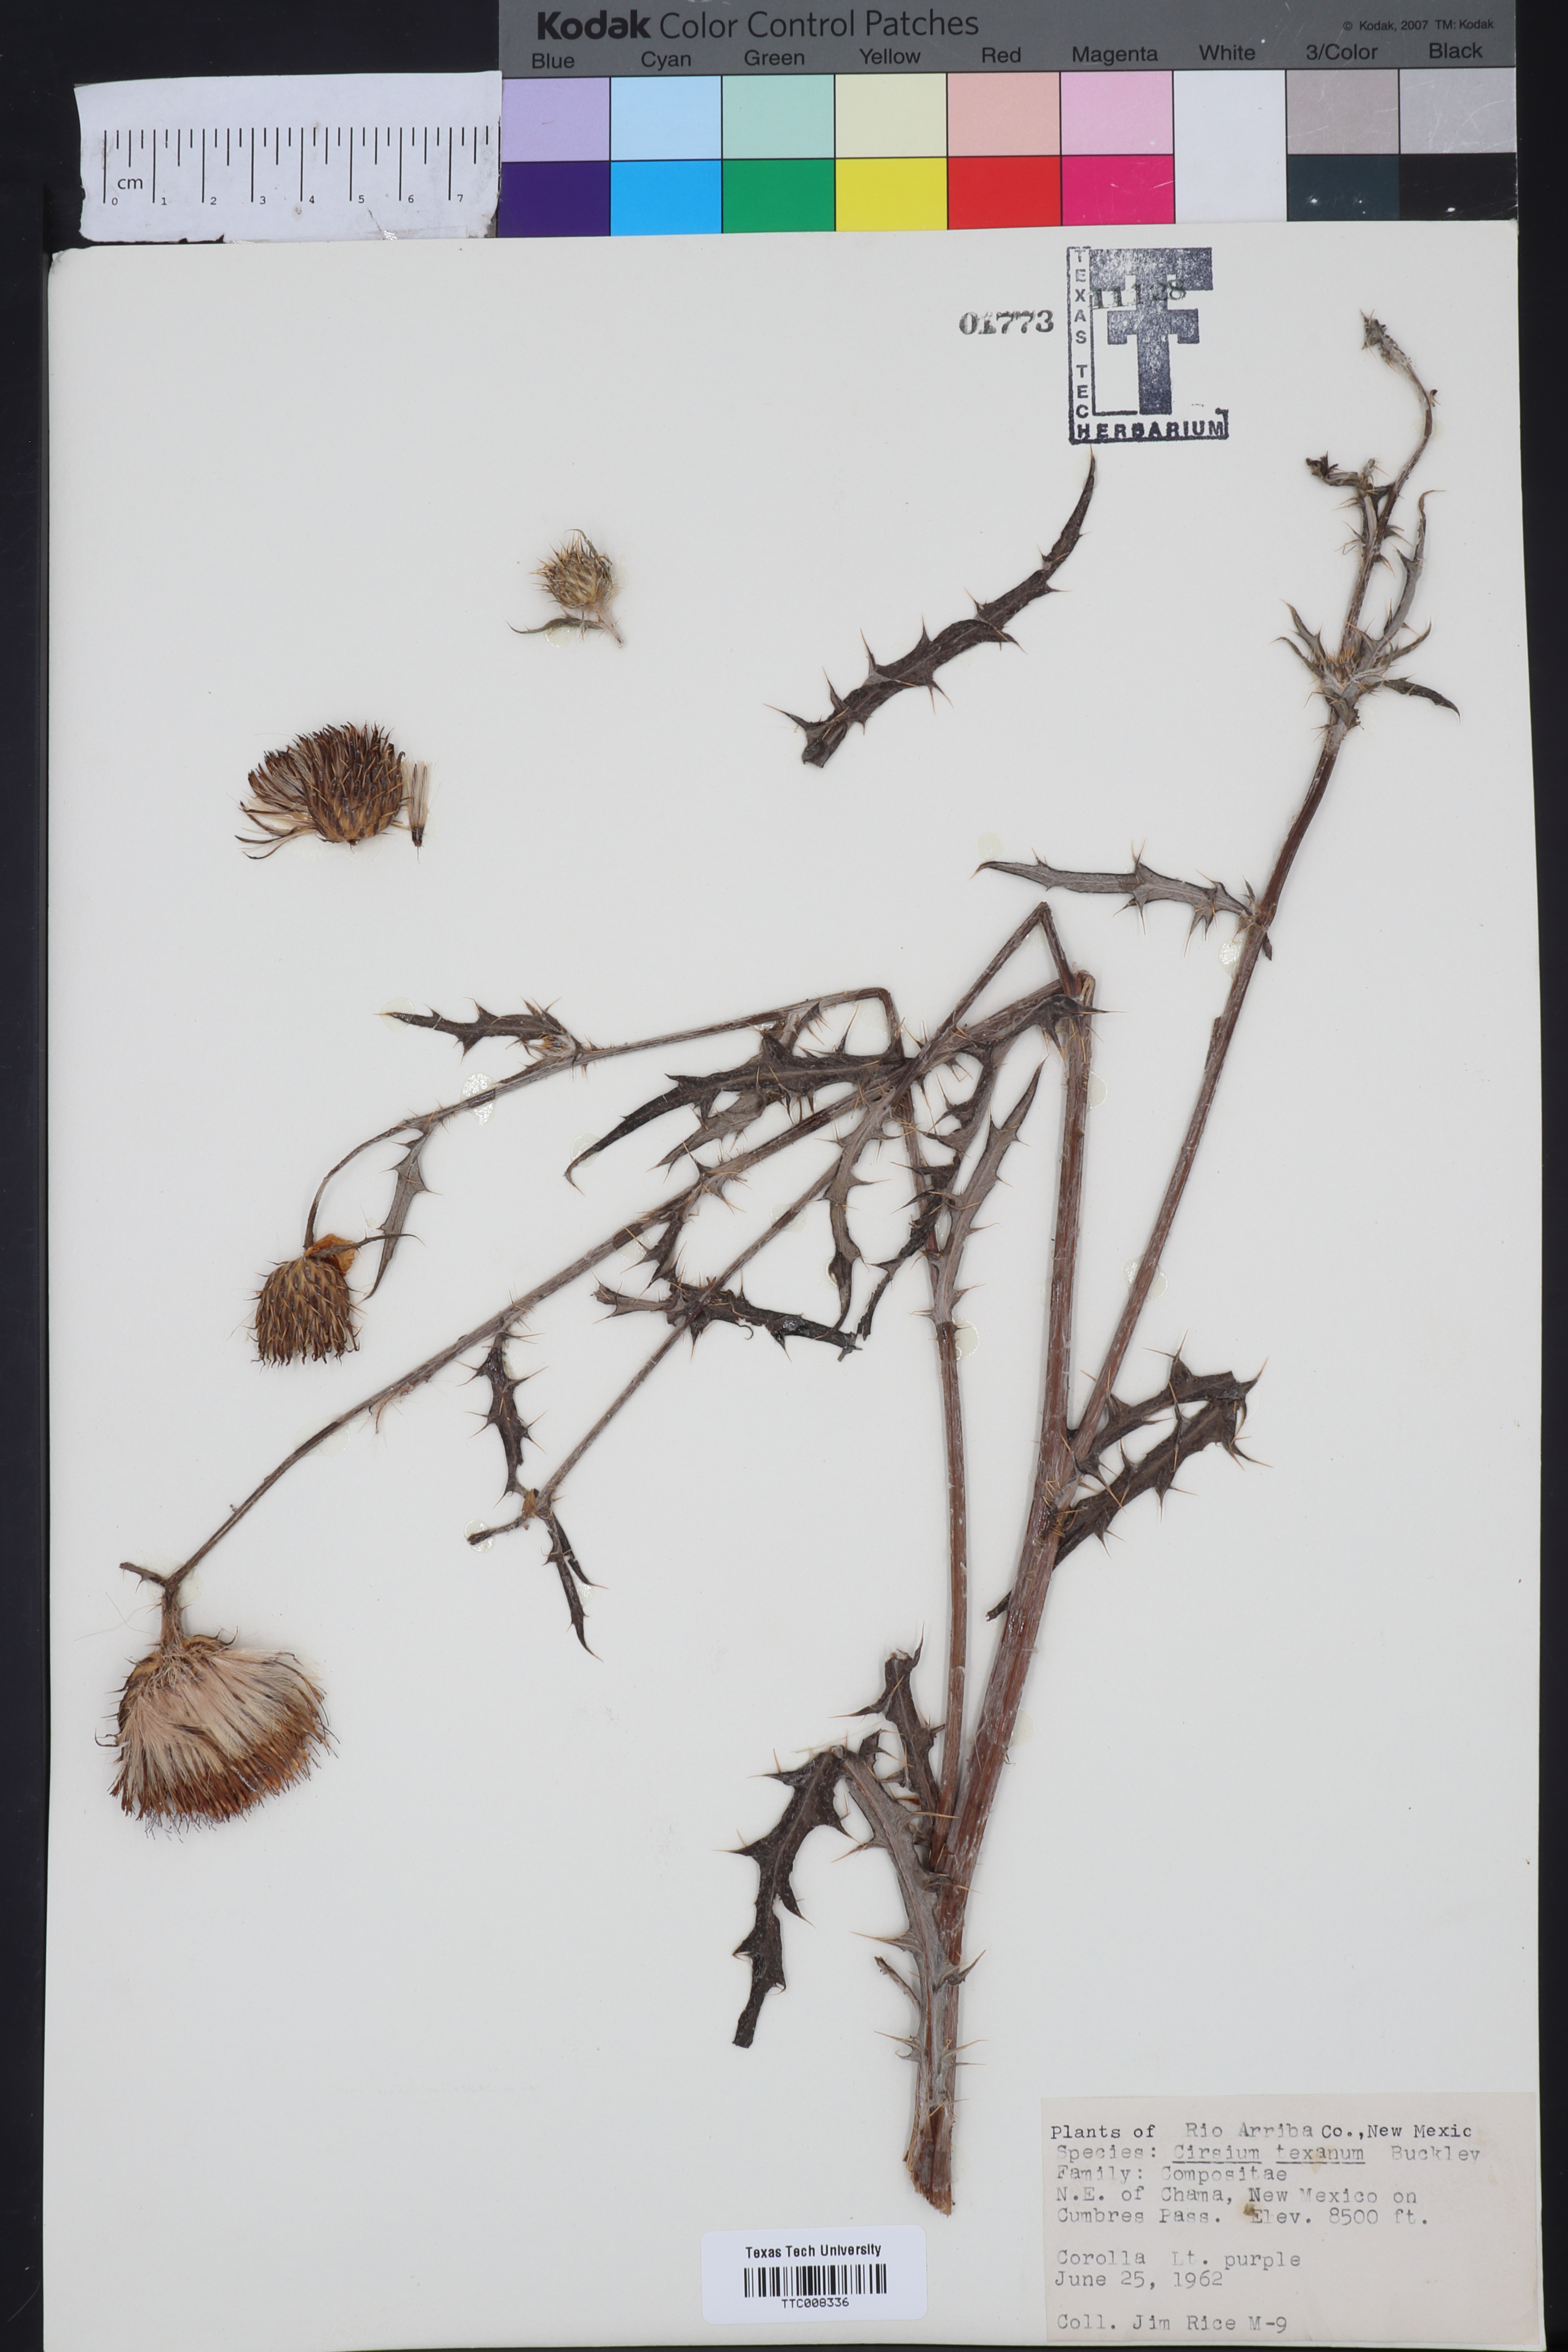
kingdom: Plantae
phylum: Tracheophyta
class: Magnoliopsida
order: Asterales
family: Asteraceae
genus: Cirsium
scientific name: Cirsium texanum
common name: Texas purple thistle
